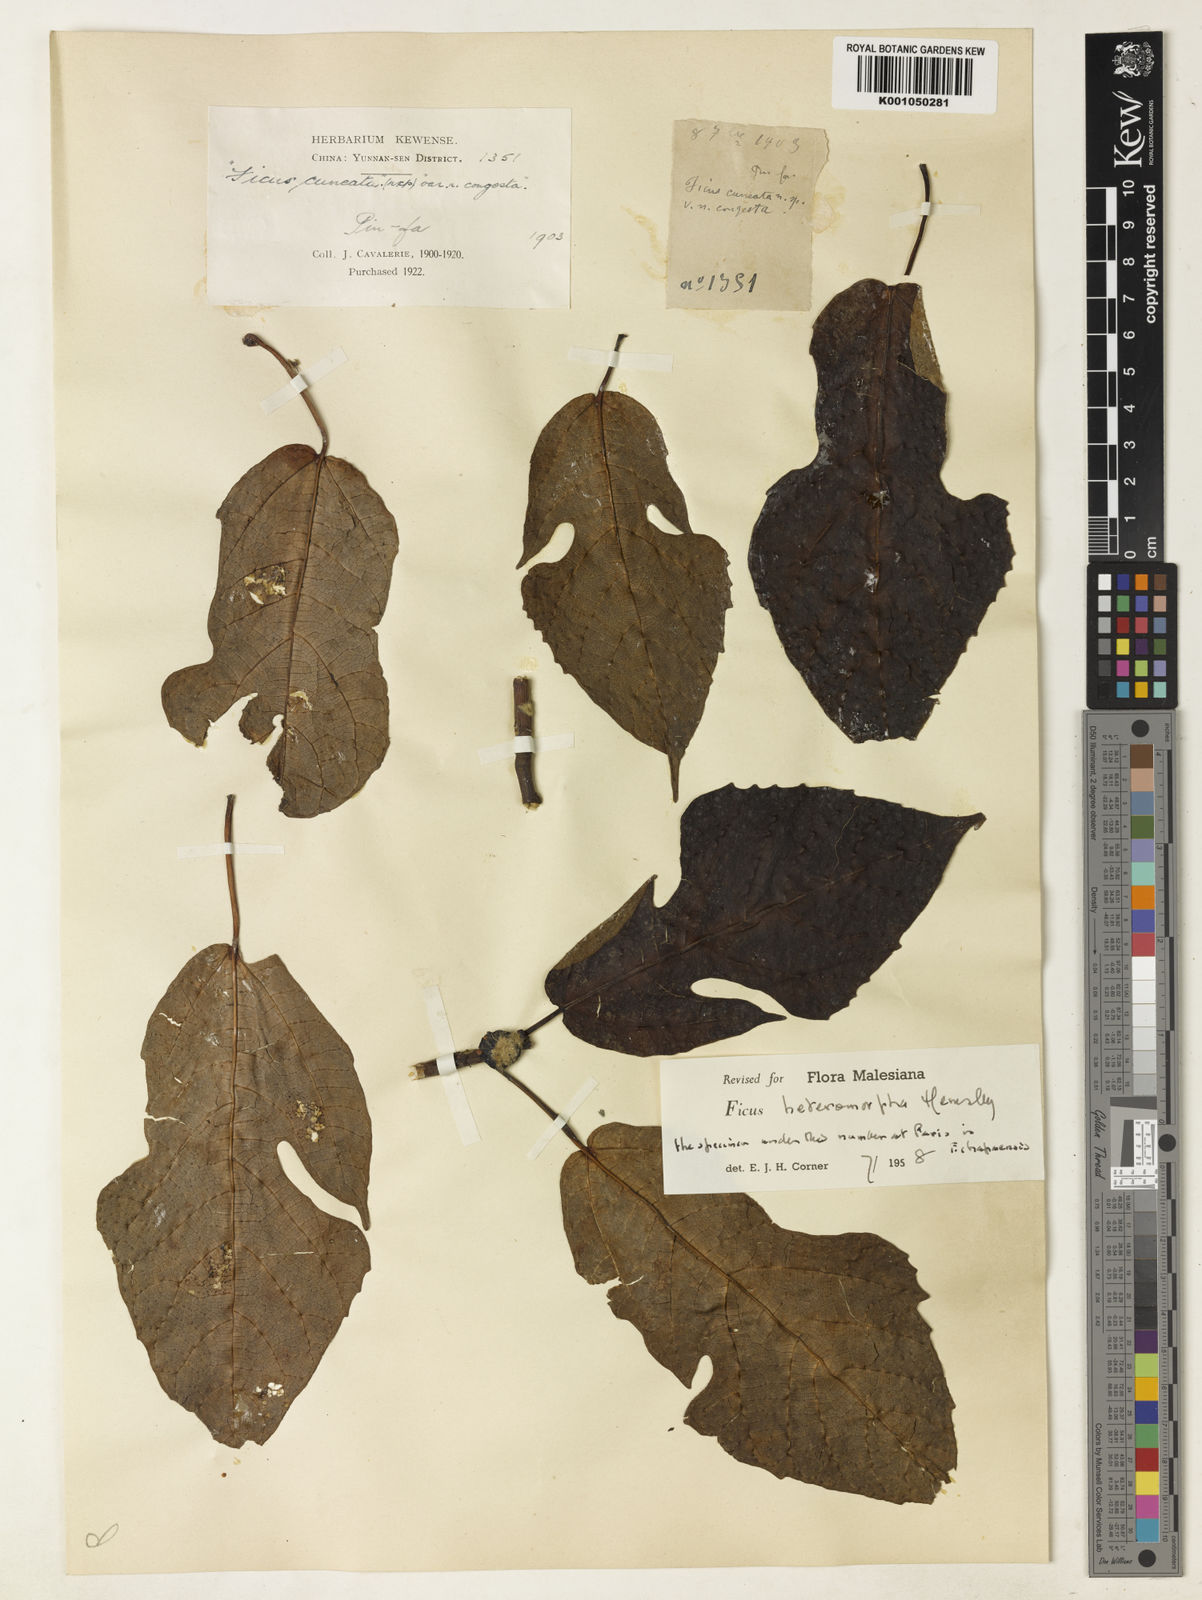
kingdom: Plantae
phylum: Tracheophyta
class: Magnoliopsida
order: Rosales
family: Moraceae
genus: Ficus
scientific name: Ficus heteromorpha
